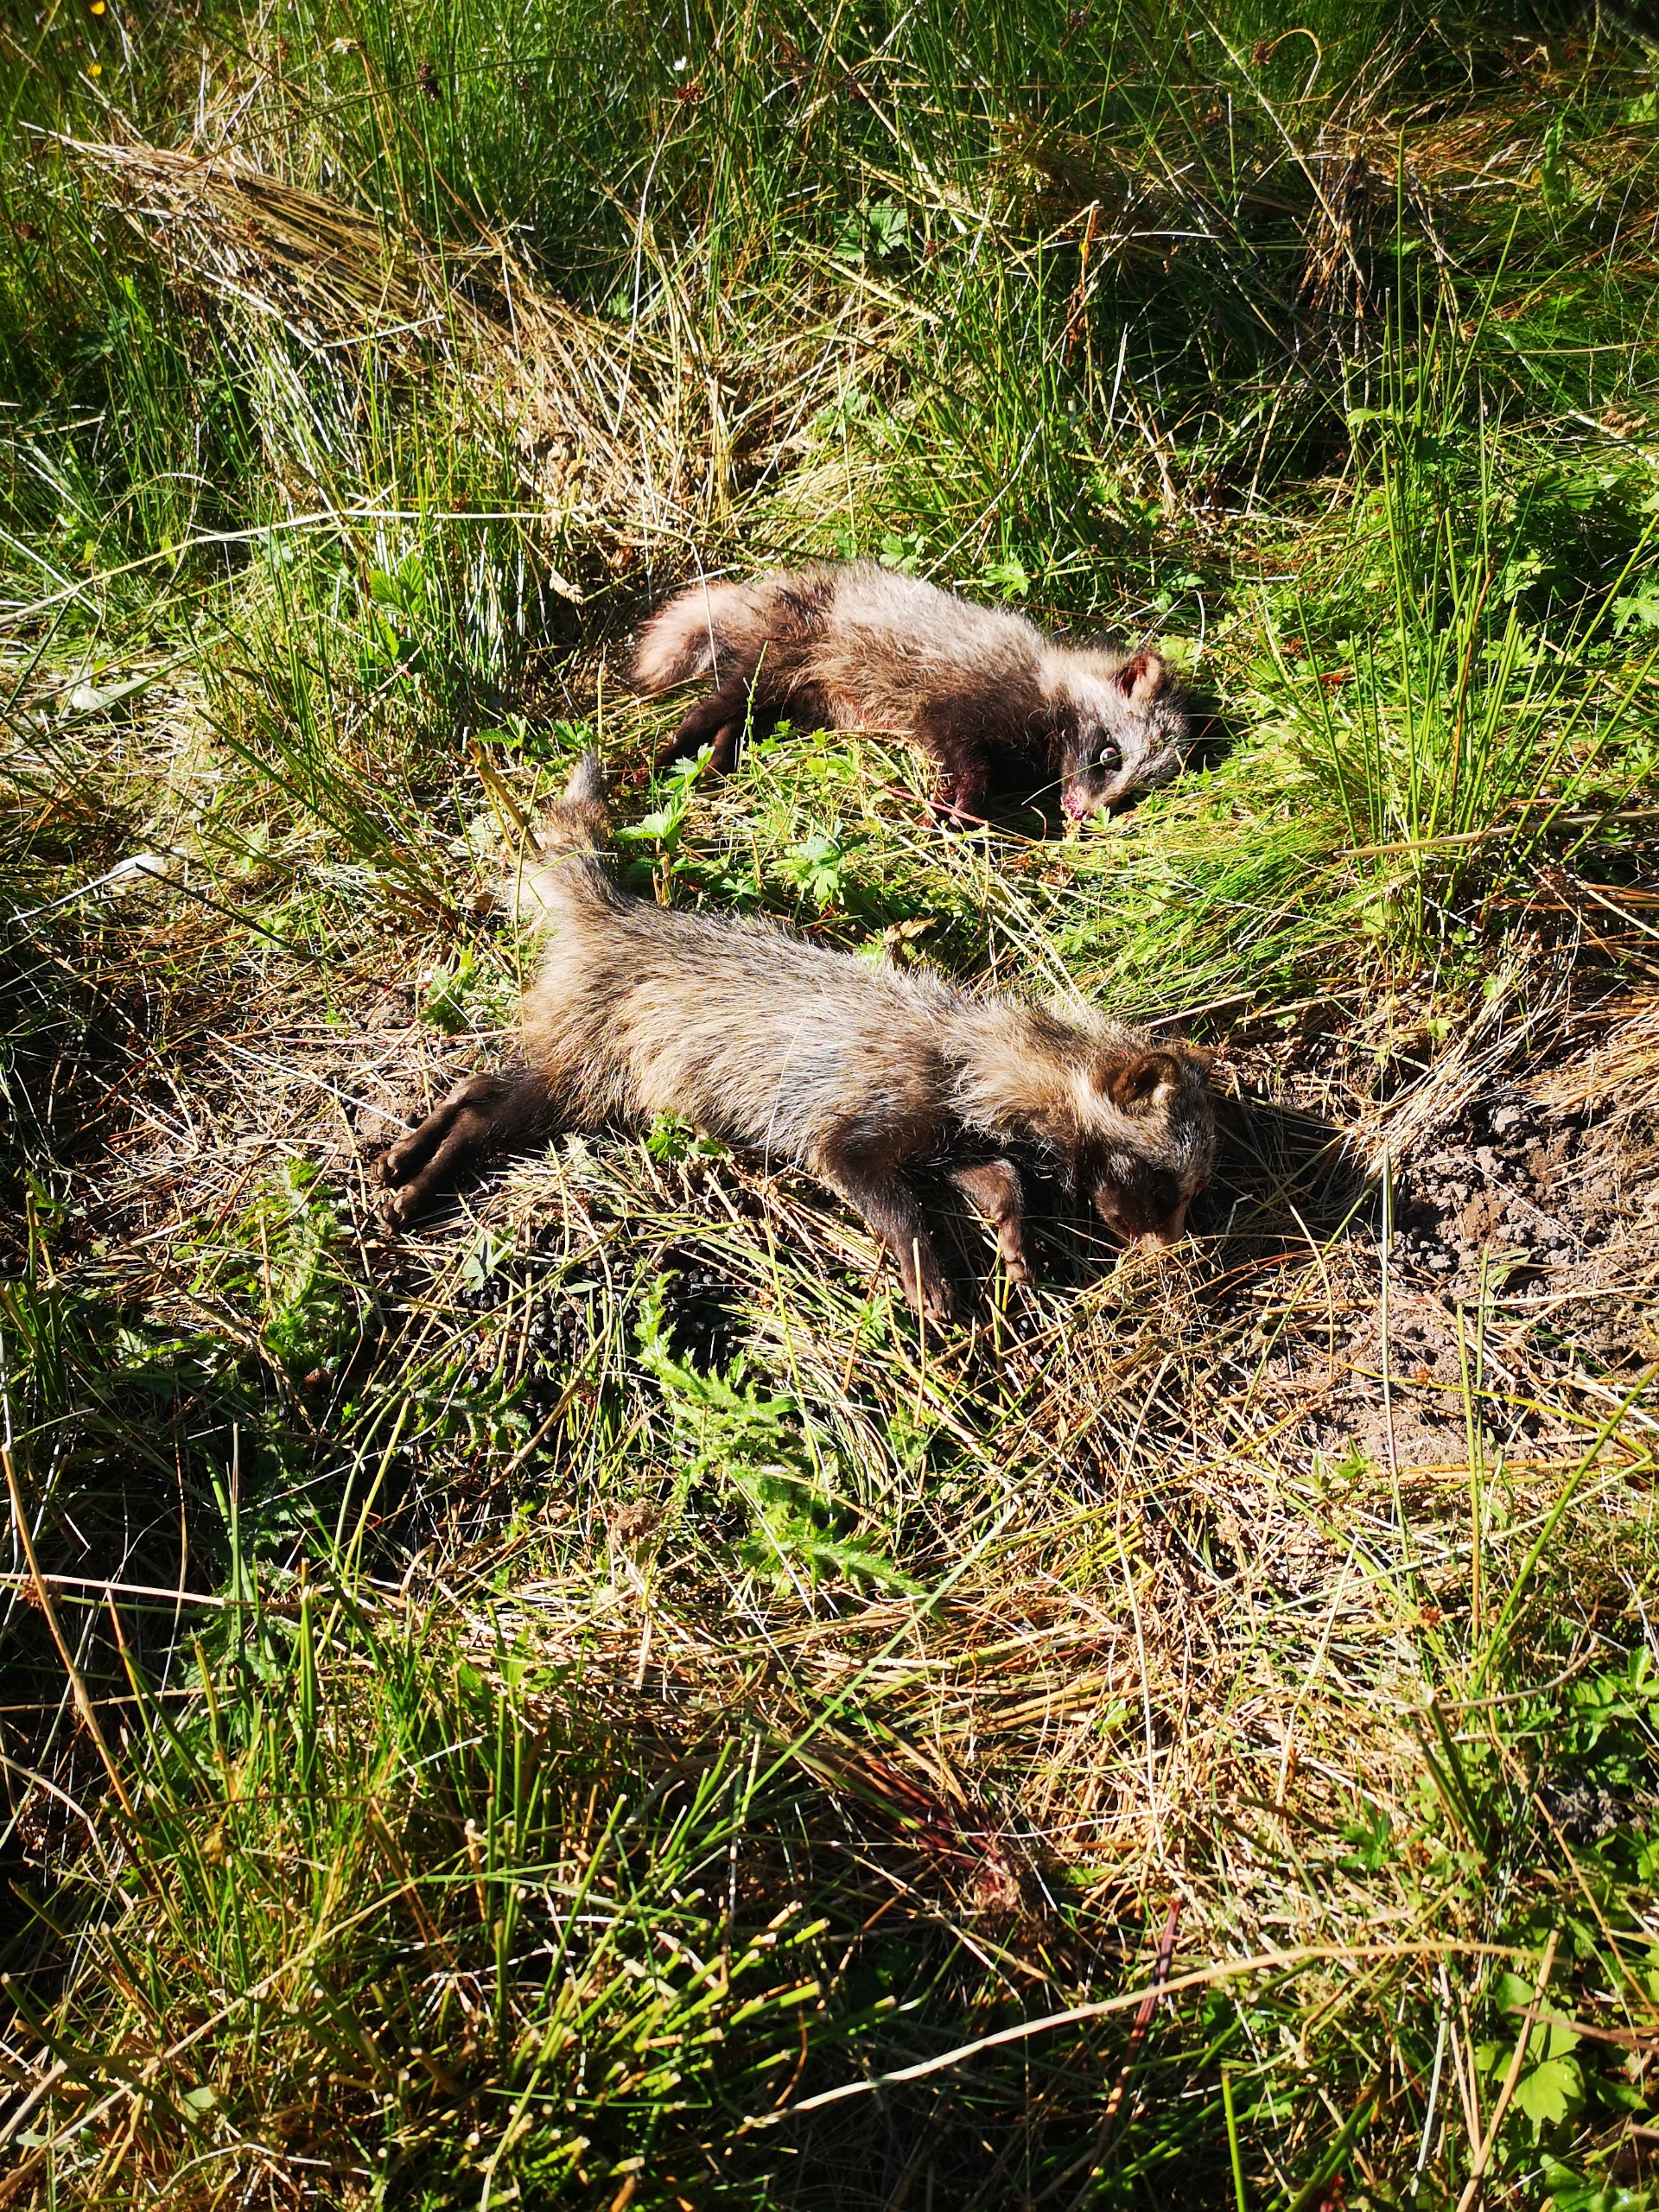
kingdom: Animalia
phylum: Chordata
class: Mammalia
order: Carnivora
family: Canidae
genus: Nyctereutes
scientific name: Nyctereutes procyonoides
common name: Mårhund
